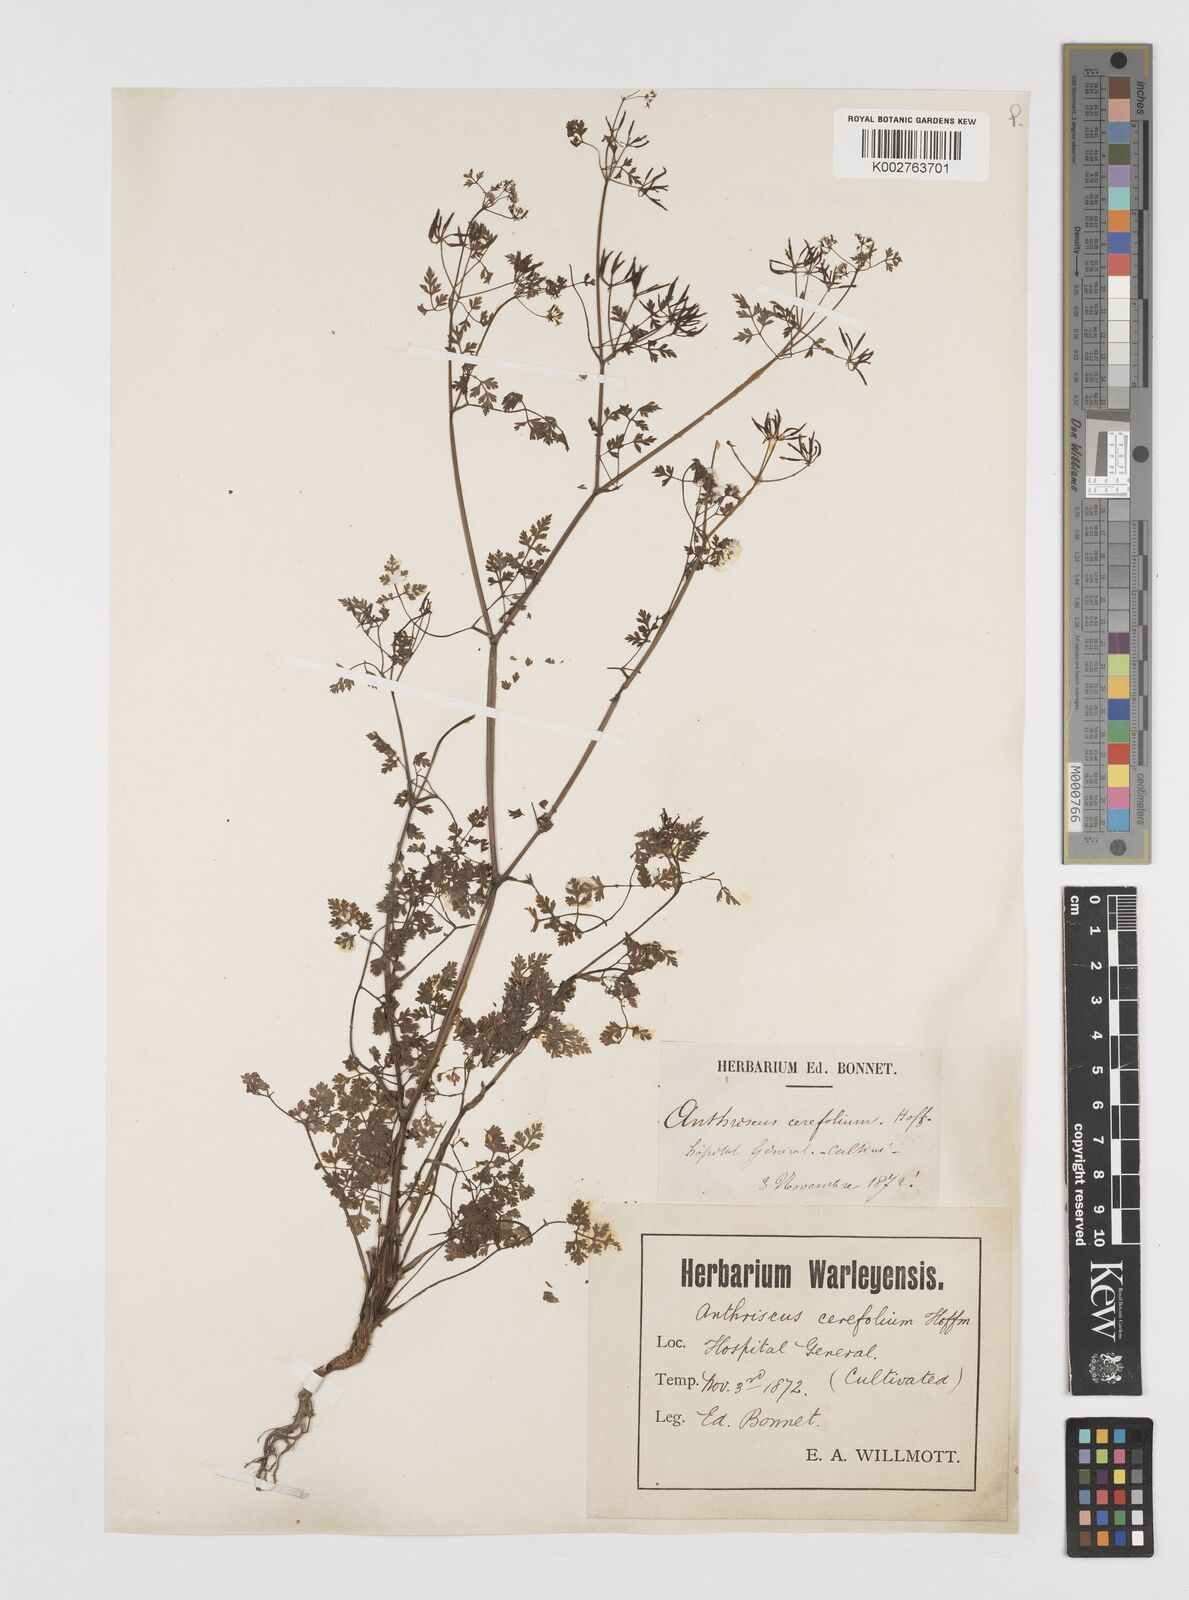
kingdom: Plantae
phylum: Tracheophyta
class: Magnoliopsida
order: Apiales
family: Apiaceae
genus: Anthriscus
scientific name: Anthriscus cerefolium
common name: Garden chervil
